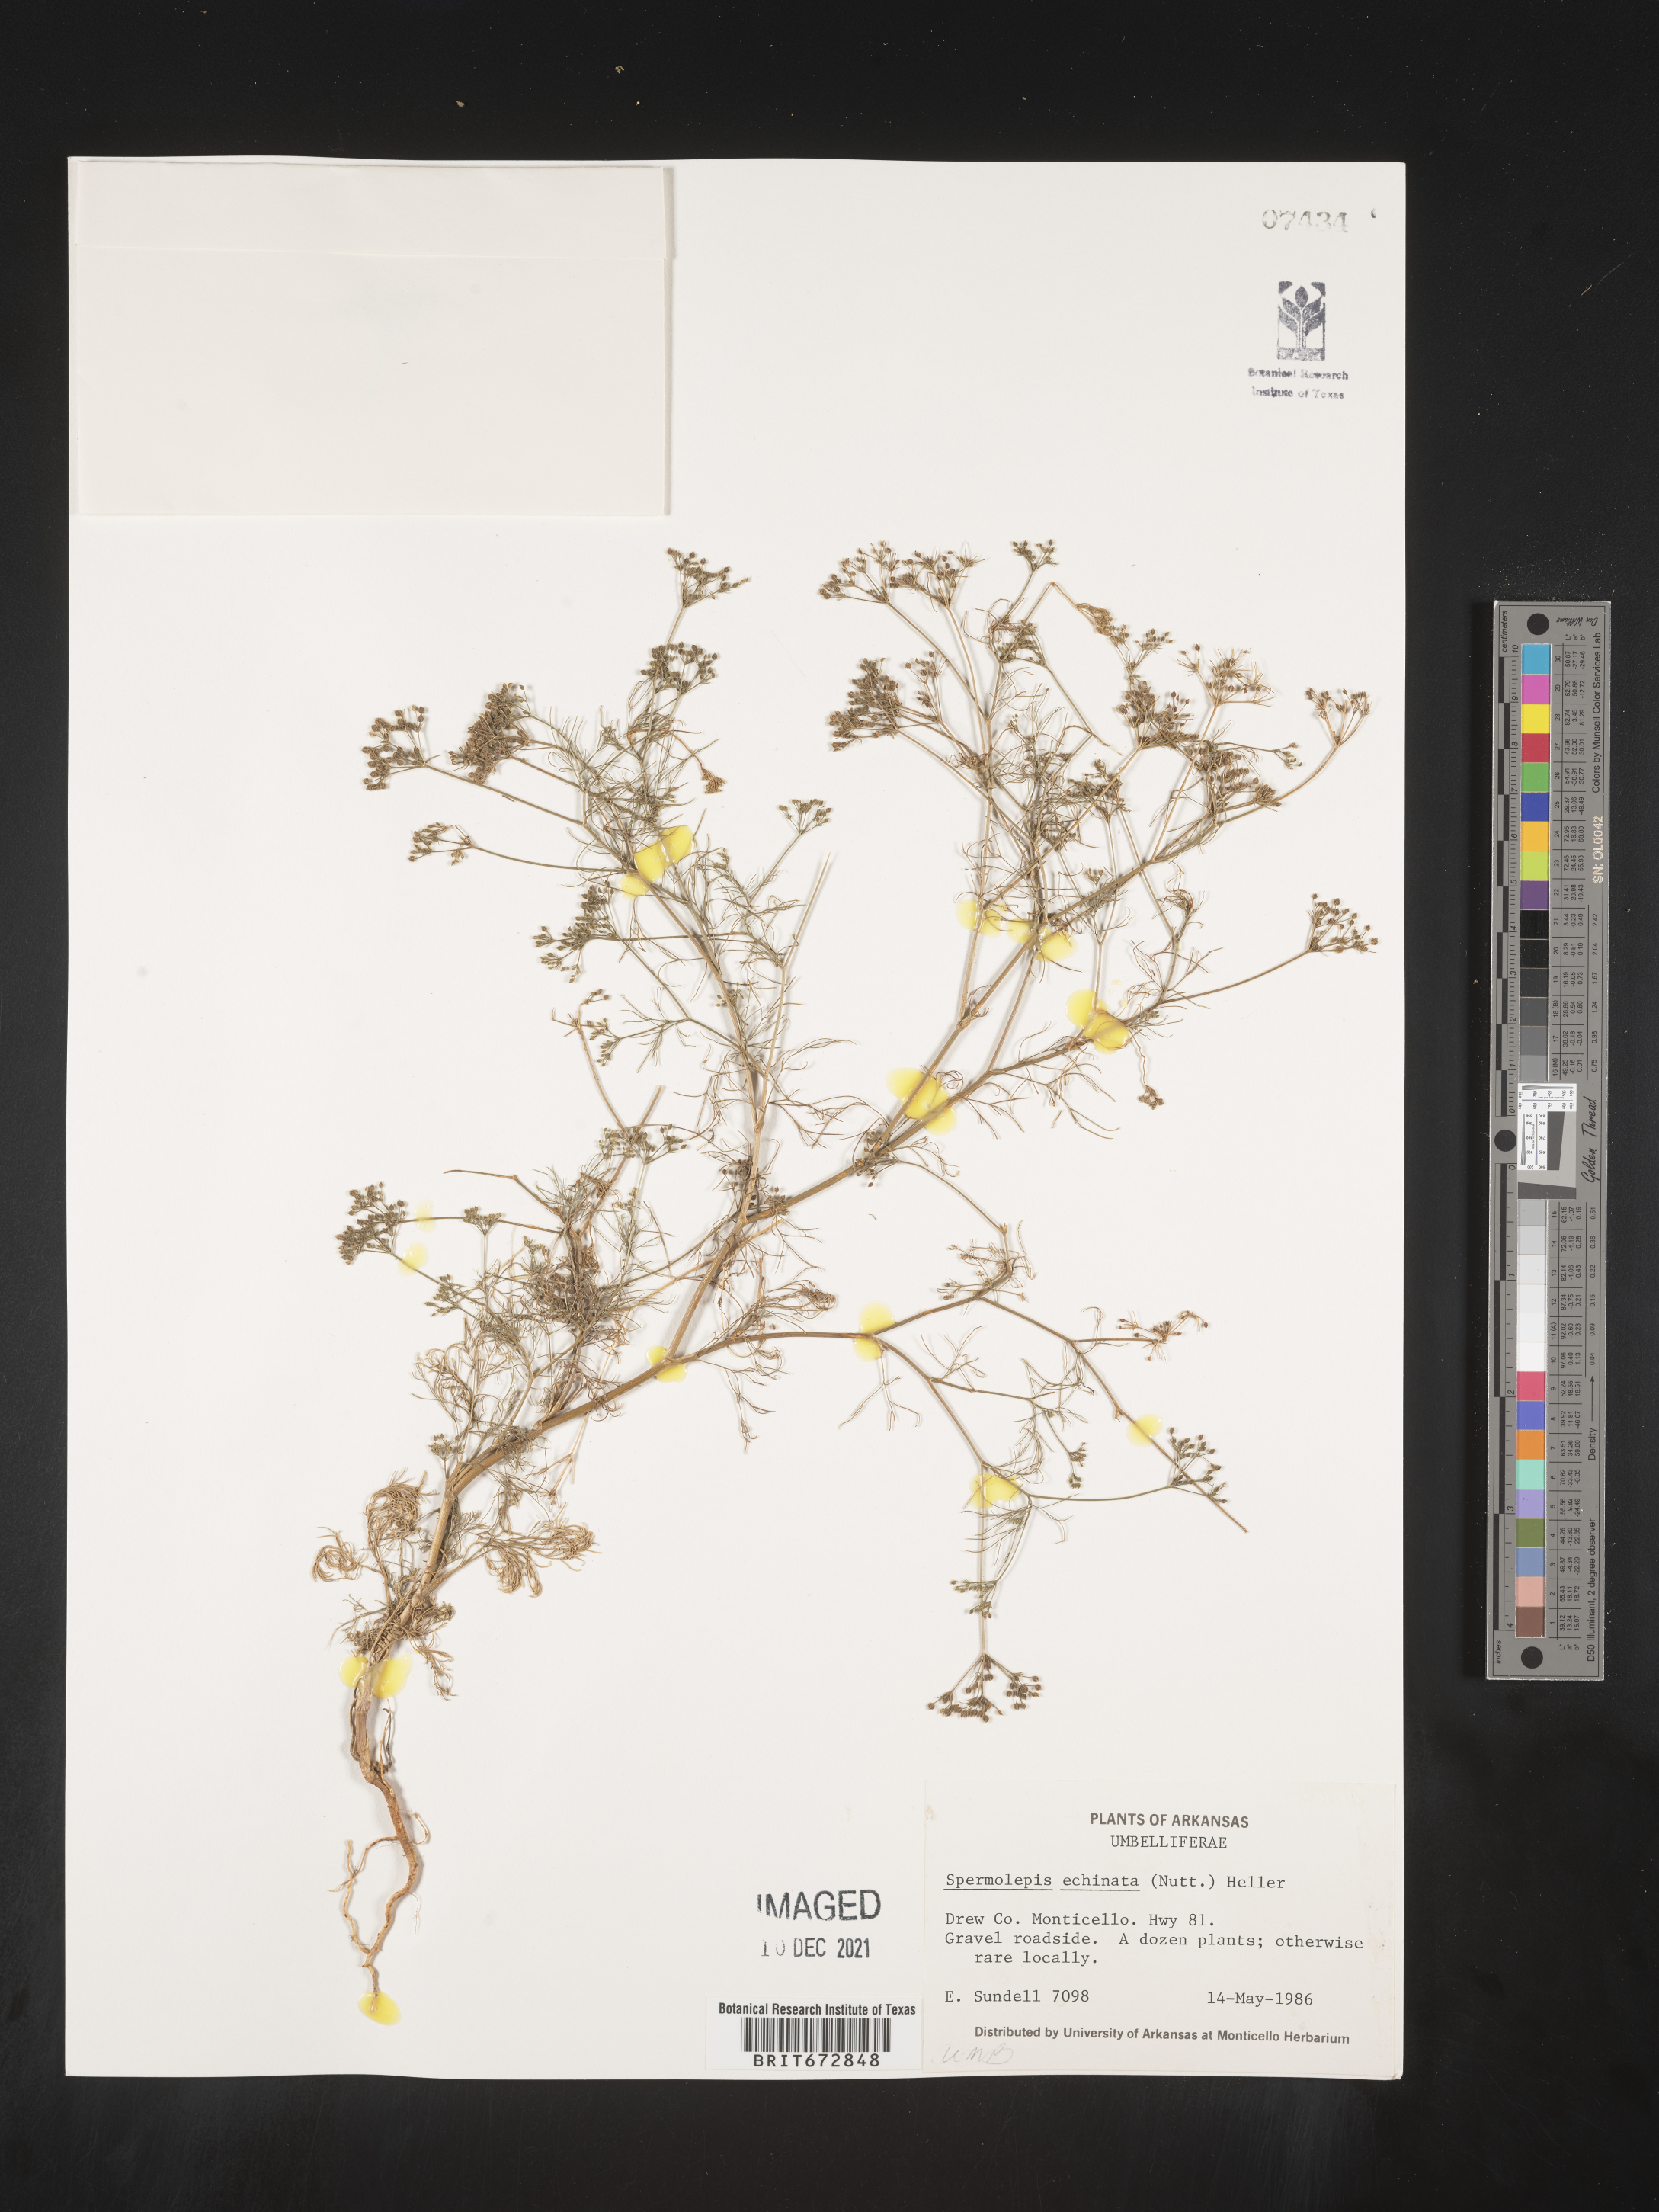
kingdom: Plantae
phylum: Tracheophyta
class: Magnoliopsida
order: Apiales
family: Apiaceae
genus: Spermolepis
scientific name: Spermolepis echinata
